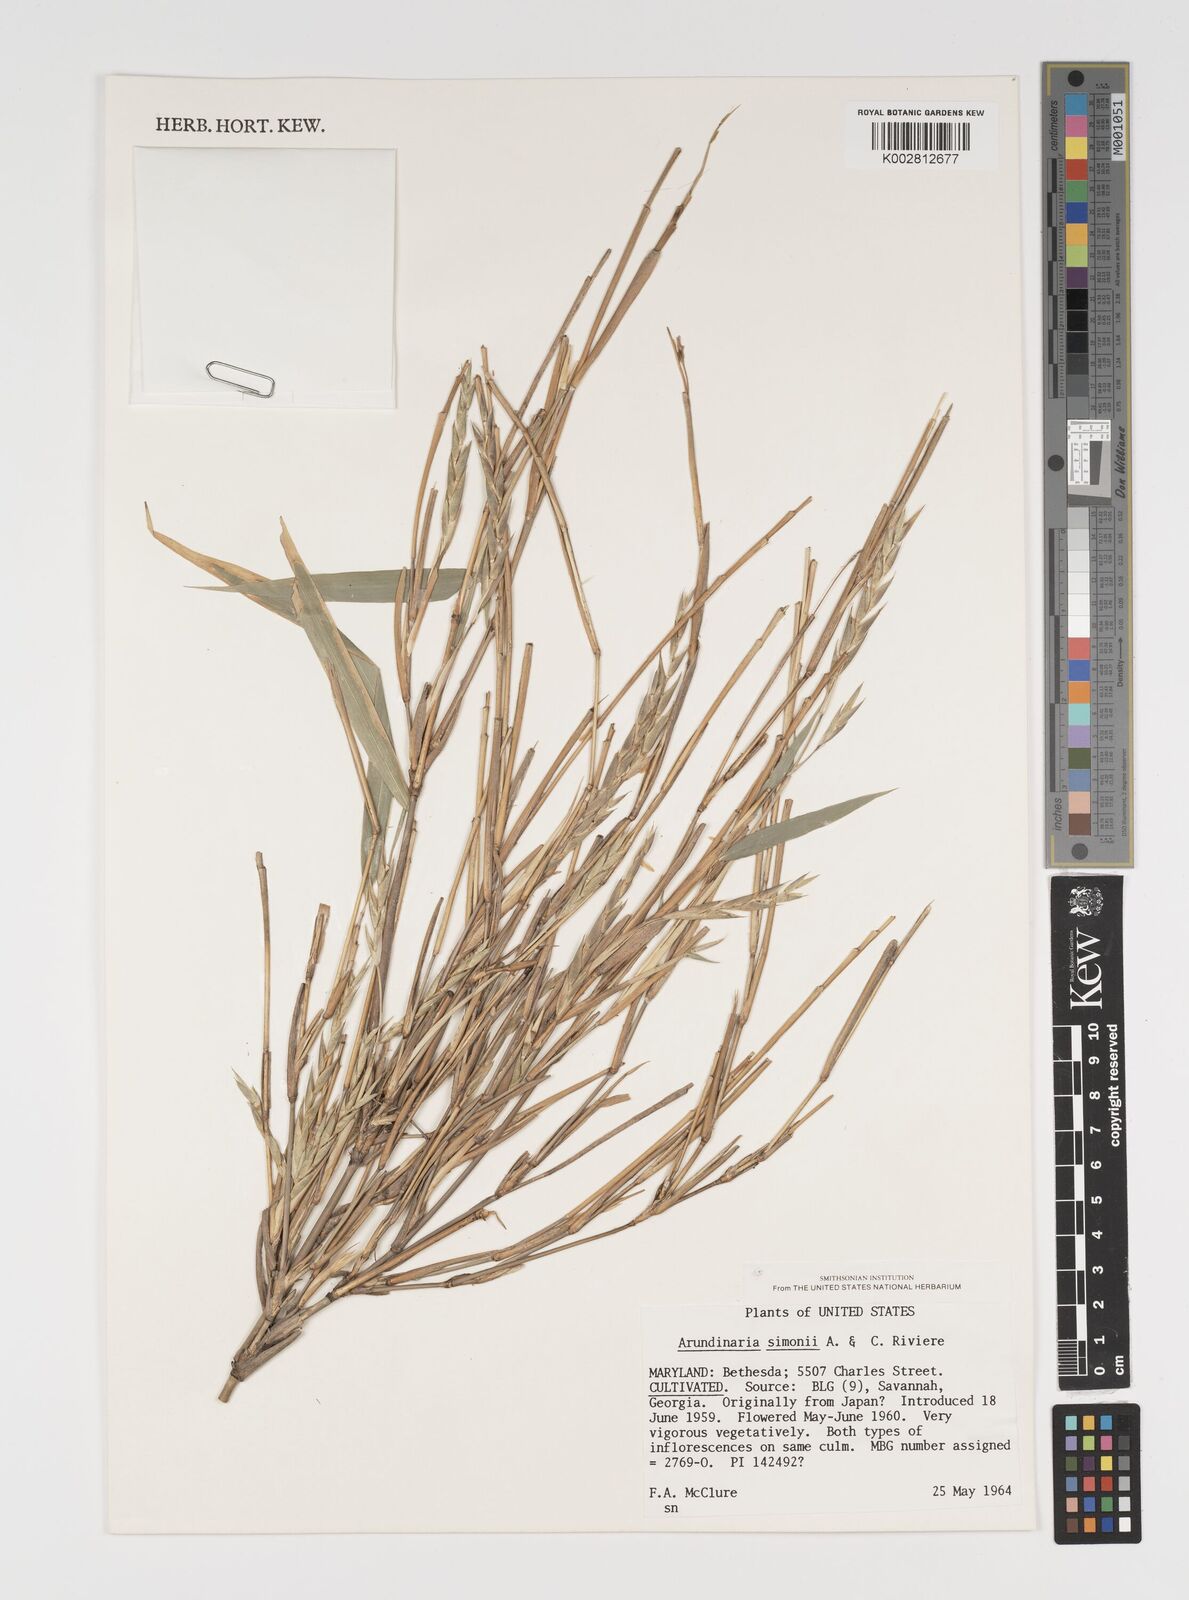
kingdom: Plantae
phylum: Tracheophyta
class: Liliopsida
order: Poales
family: Poaceae
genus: Pleioblastus
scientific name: Pleioblastus simonii
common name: Simon bamboo
